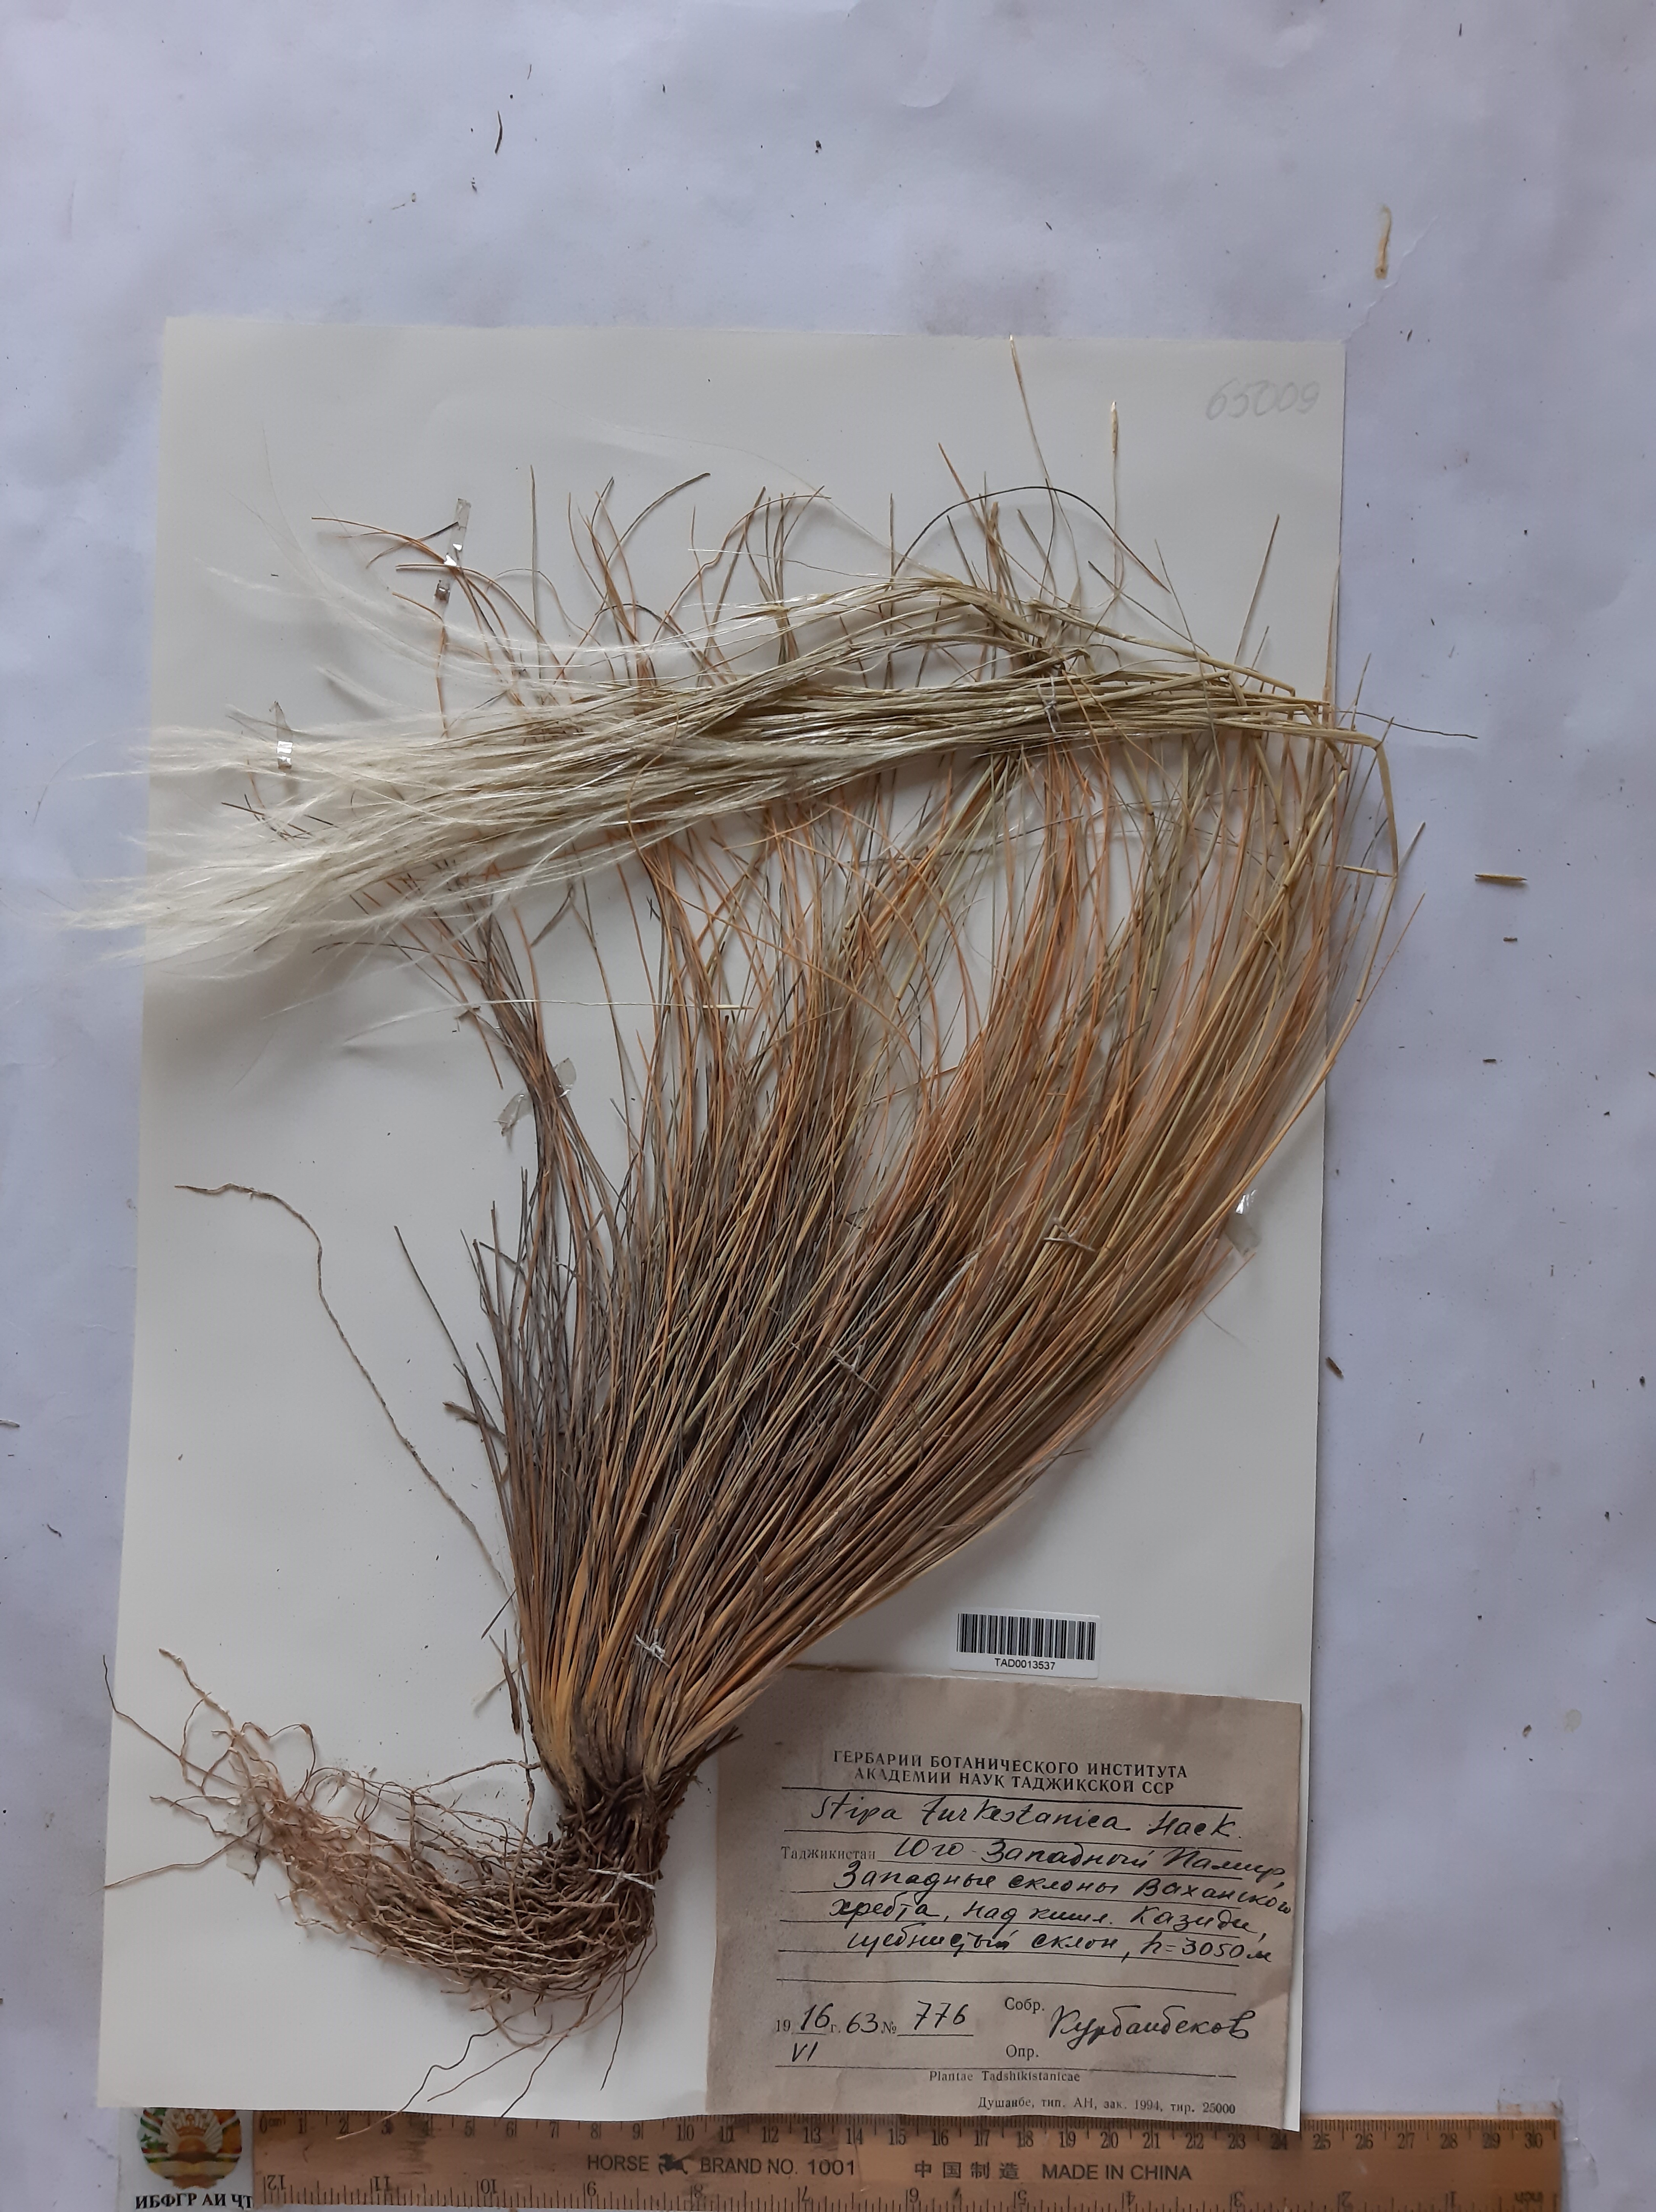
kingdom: Plantae
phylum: Tracheophyta
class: Liliopsida
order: Poales
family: Poaceae
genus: Stipa
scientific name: Stipa turkestanica
